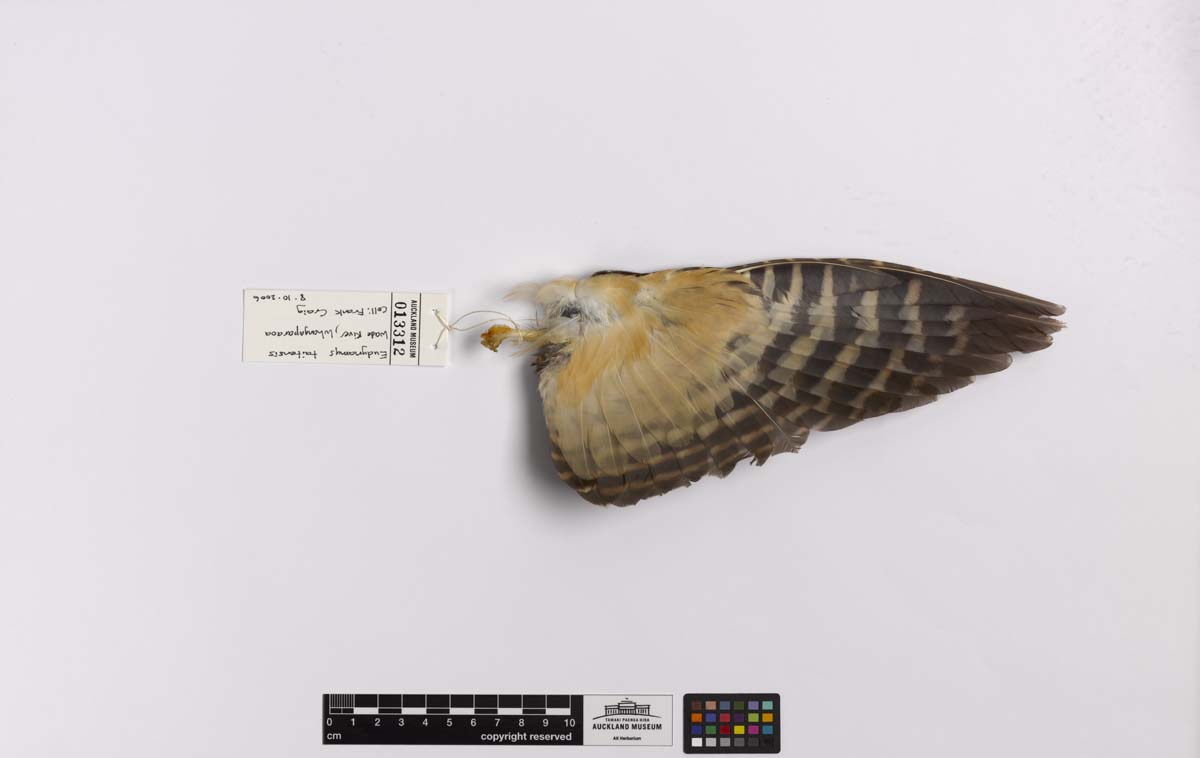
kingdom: Animalia
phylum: Chordata
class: Aves
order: Cuculiformes
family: Cuculidae
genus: Urodynamis
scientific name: Urodynamis taitensis
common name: Long-tailed koel
